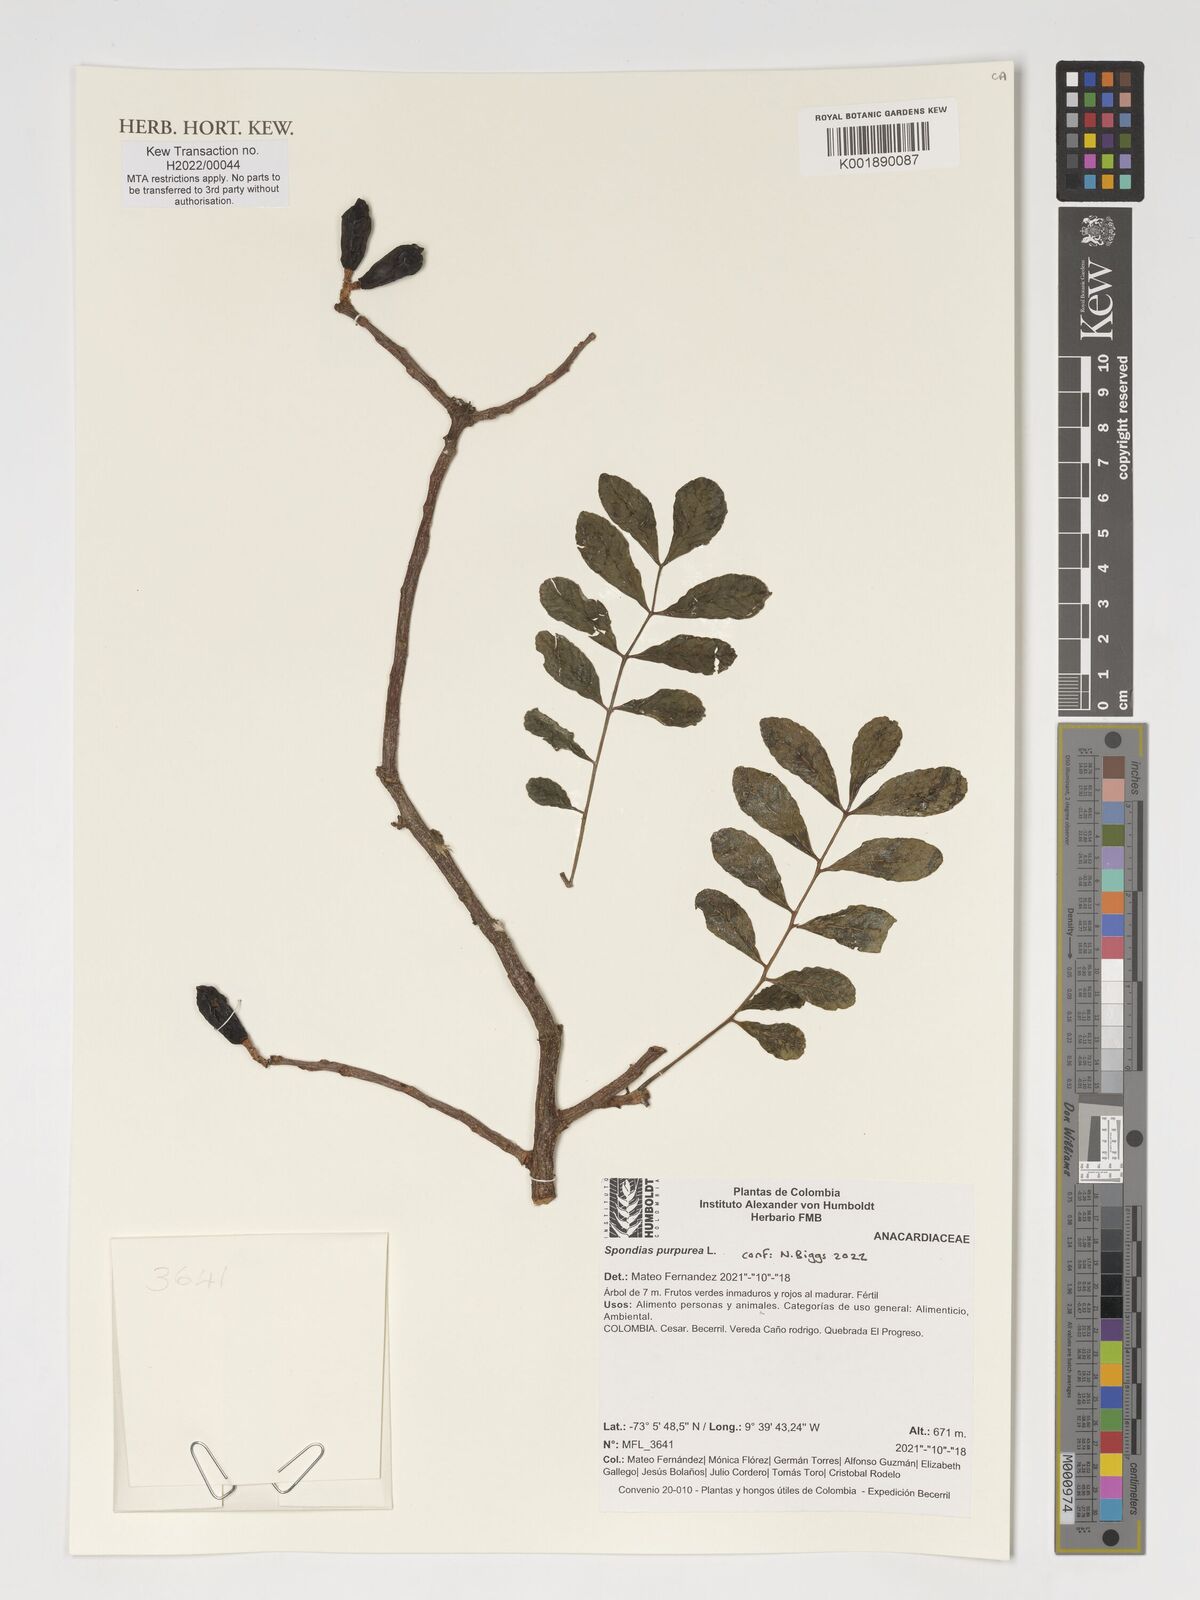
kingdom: Plantae
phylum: Tracheophyta
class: Magnoliopsida
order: Sapindales
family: Anacardiaceae
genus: Spondias
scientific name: Spondias purpurea
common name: Purple mombin
